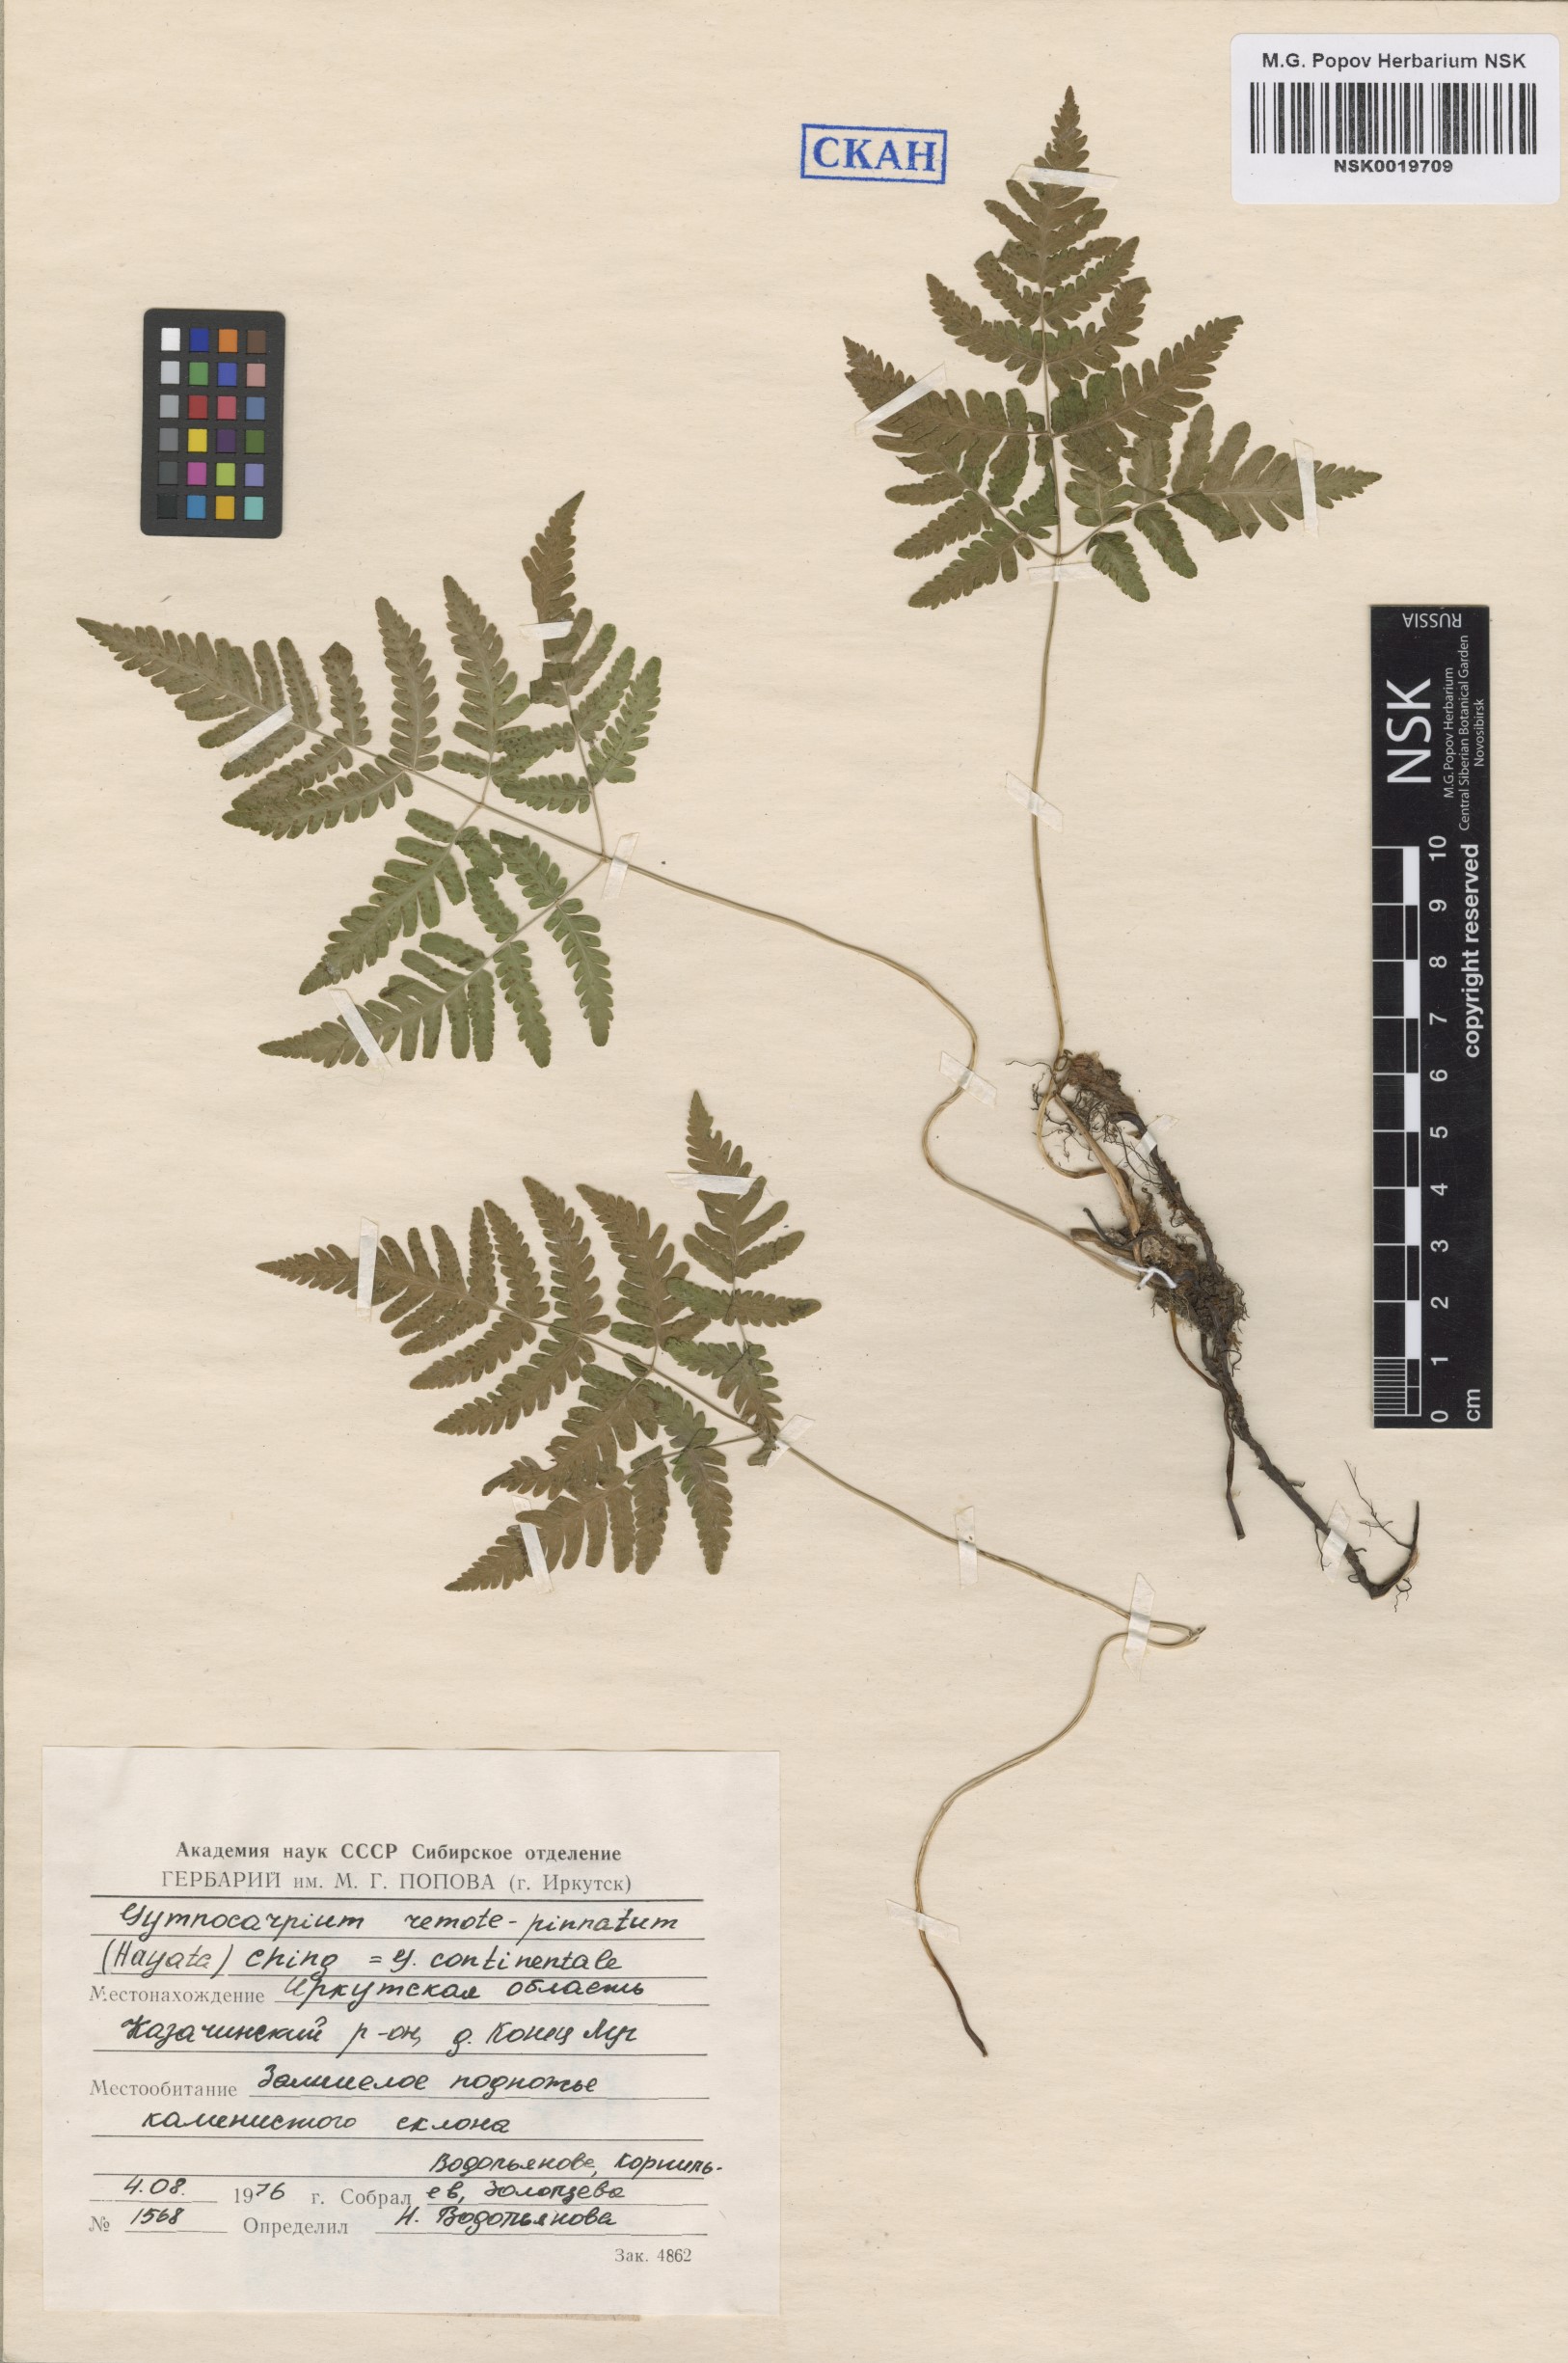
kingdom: Plantae
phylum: Tracheophyta
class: Polypodiopsida
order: Polypodiales
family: Cystopteridaceae
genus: Gymnocarpium
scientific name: Gymnocarpium continentale
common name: Asian oak fern
